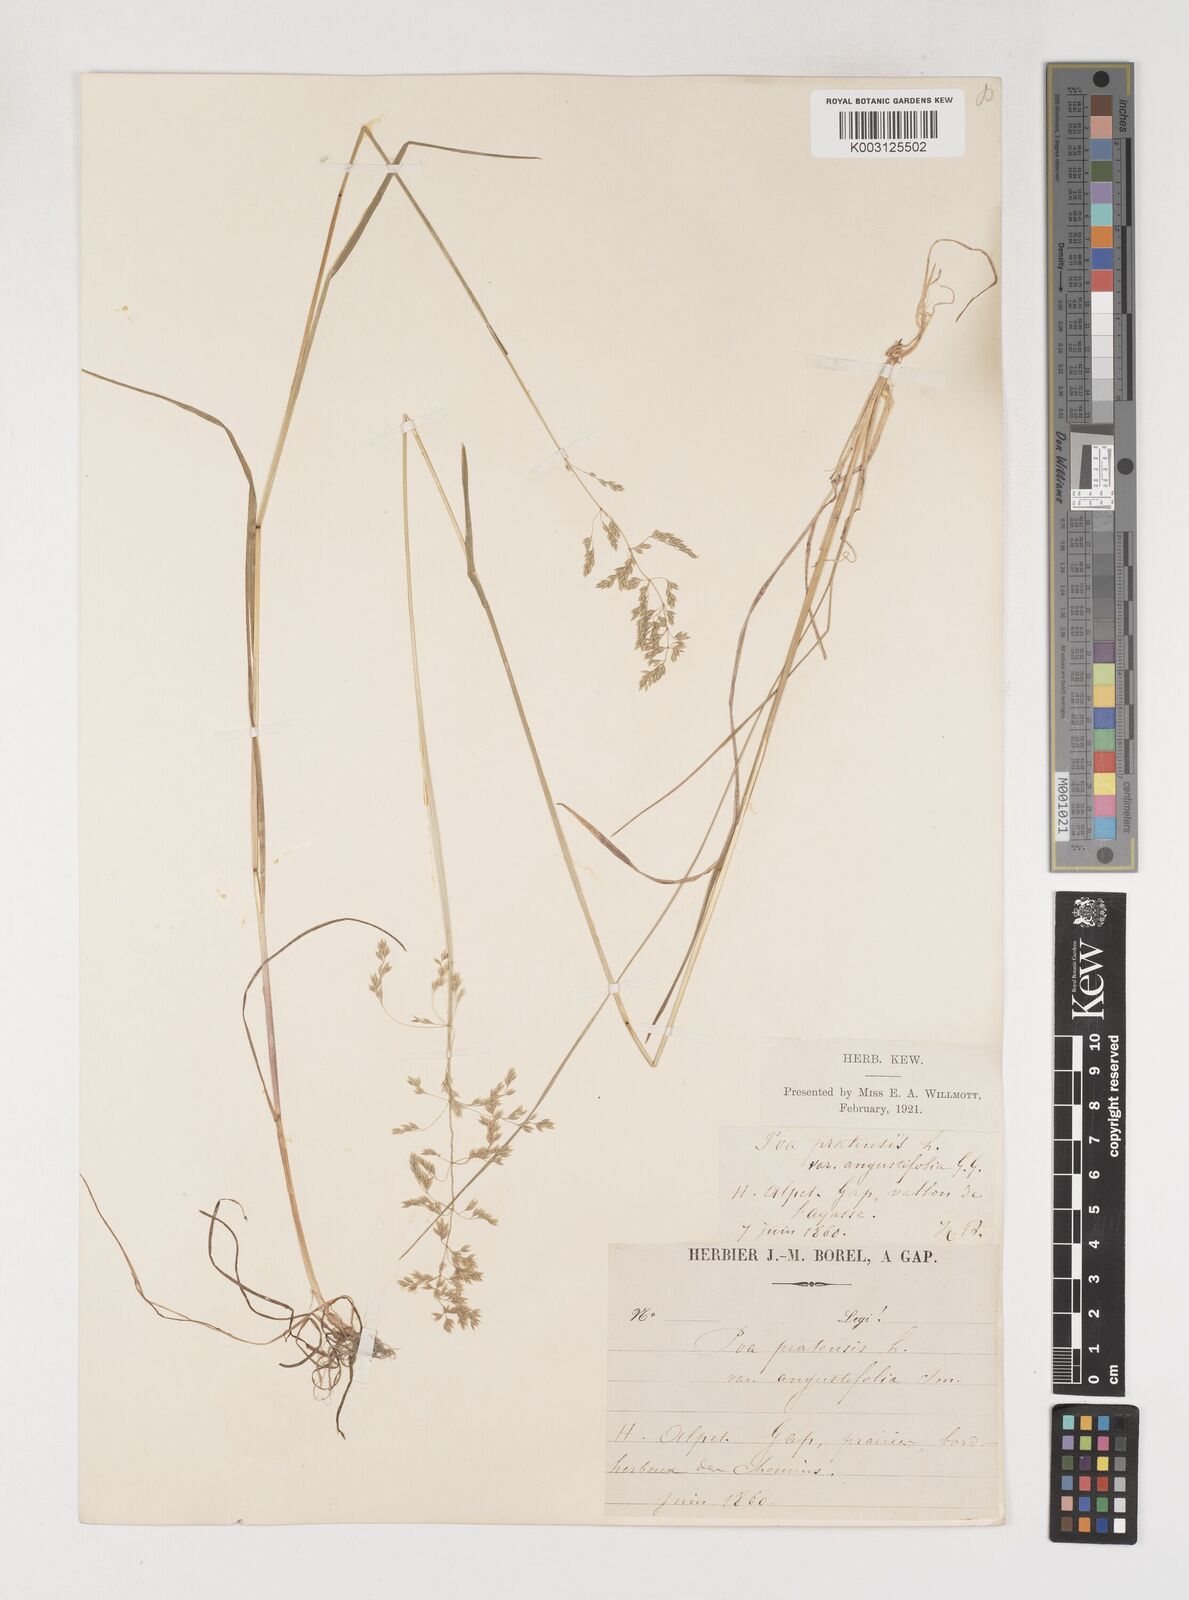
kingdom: Plantae
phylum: Tracheophyta
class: Liliopsida
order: Poales
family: Poaceae
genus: Poa
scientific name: Poa angustifolia
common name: Narrow-leaved meadow-grass
